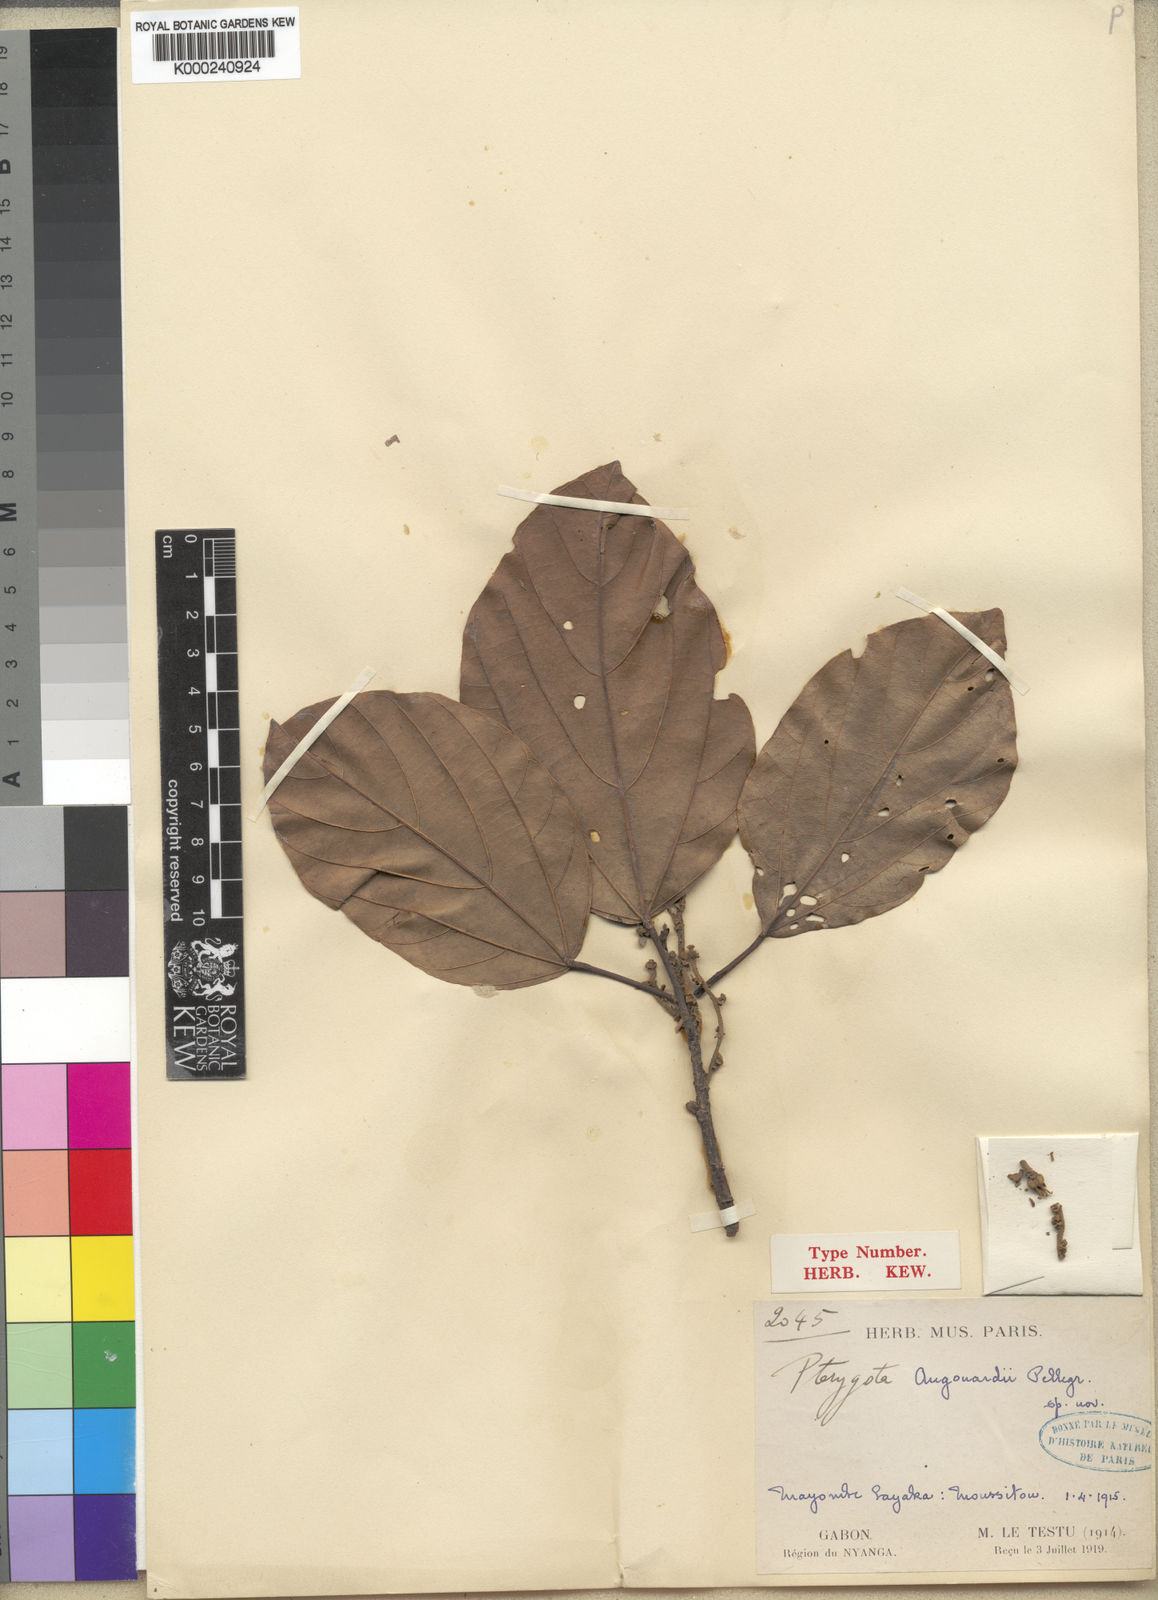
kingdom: Plantae
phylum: Tracheophyta
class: Magnoliopsida
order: Malvales
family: Malvaceae
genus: Pterygota
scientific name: Pterygota augouardii
